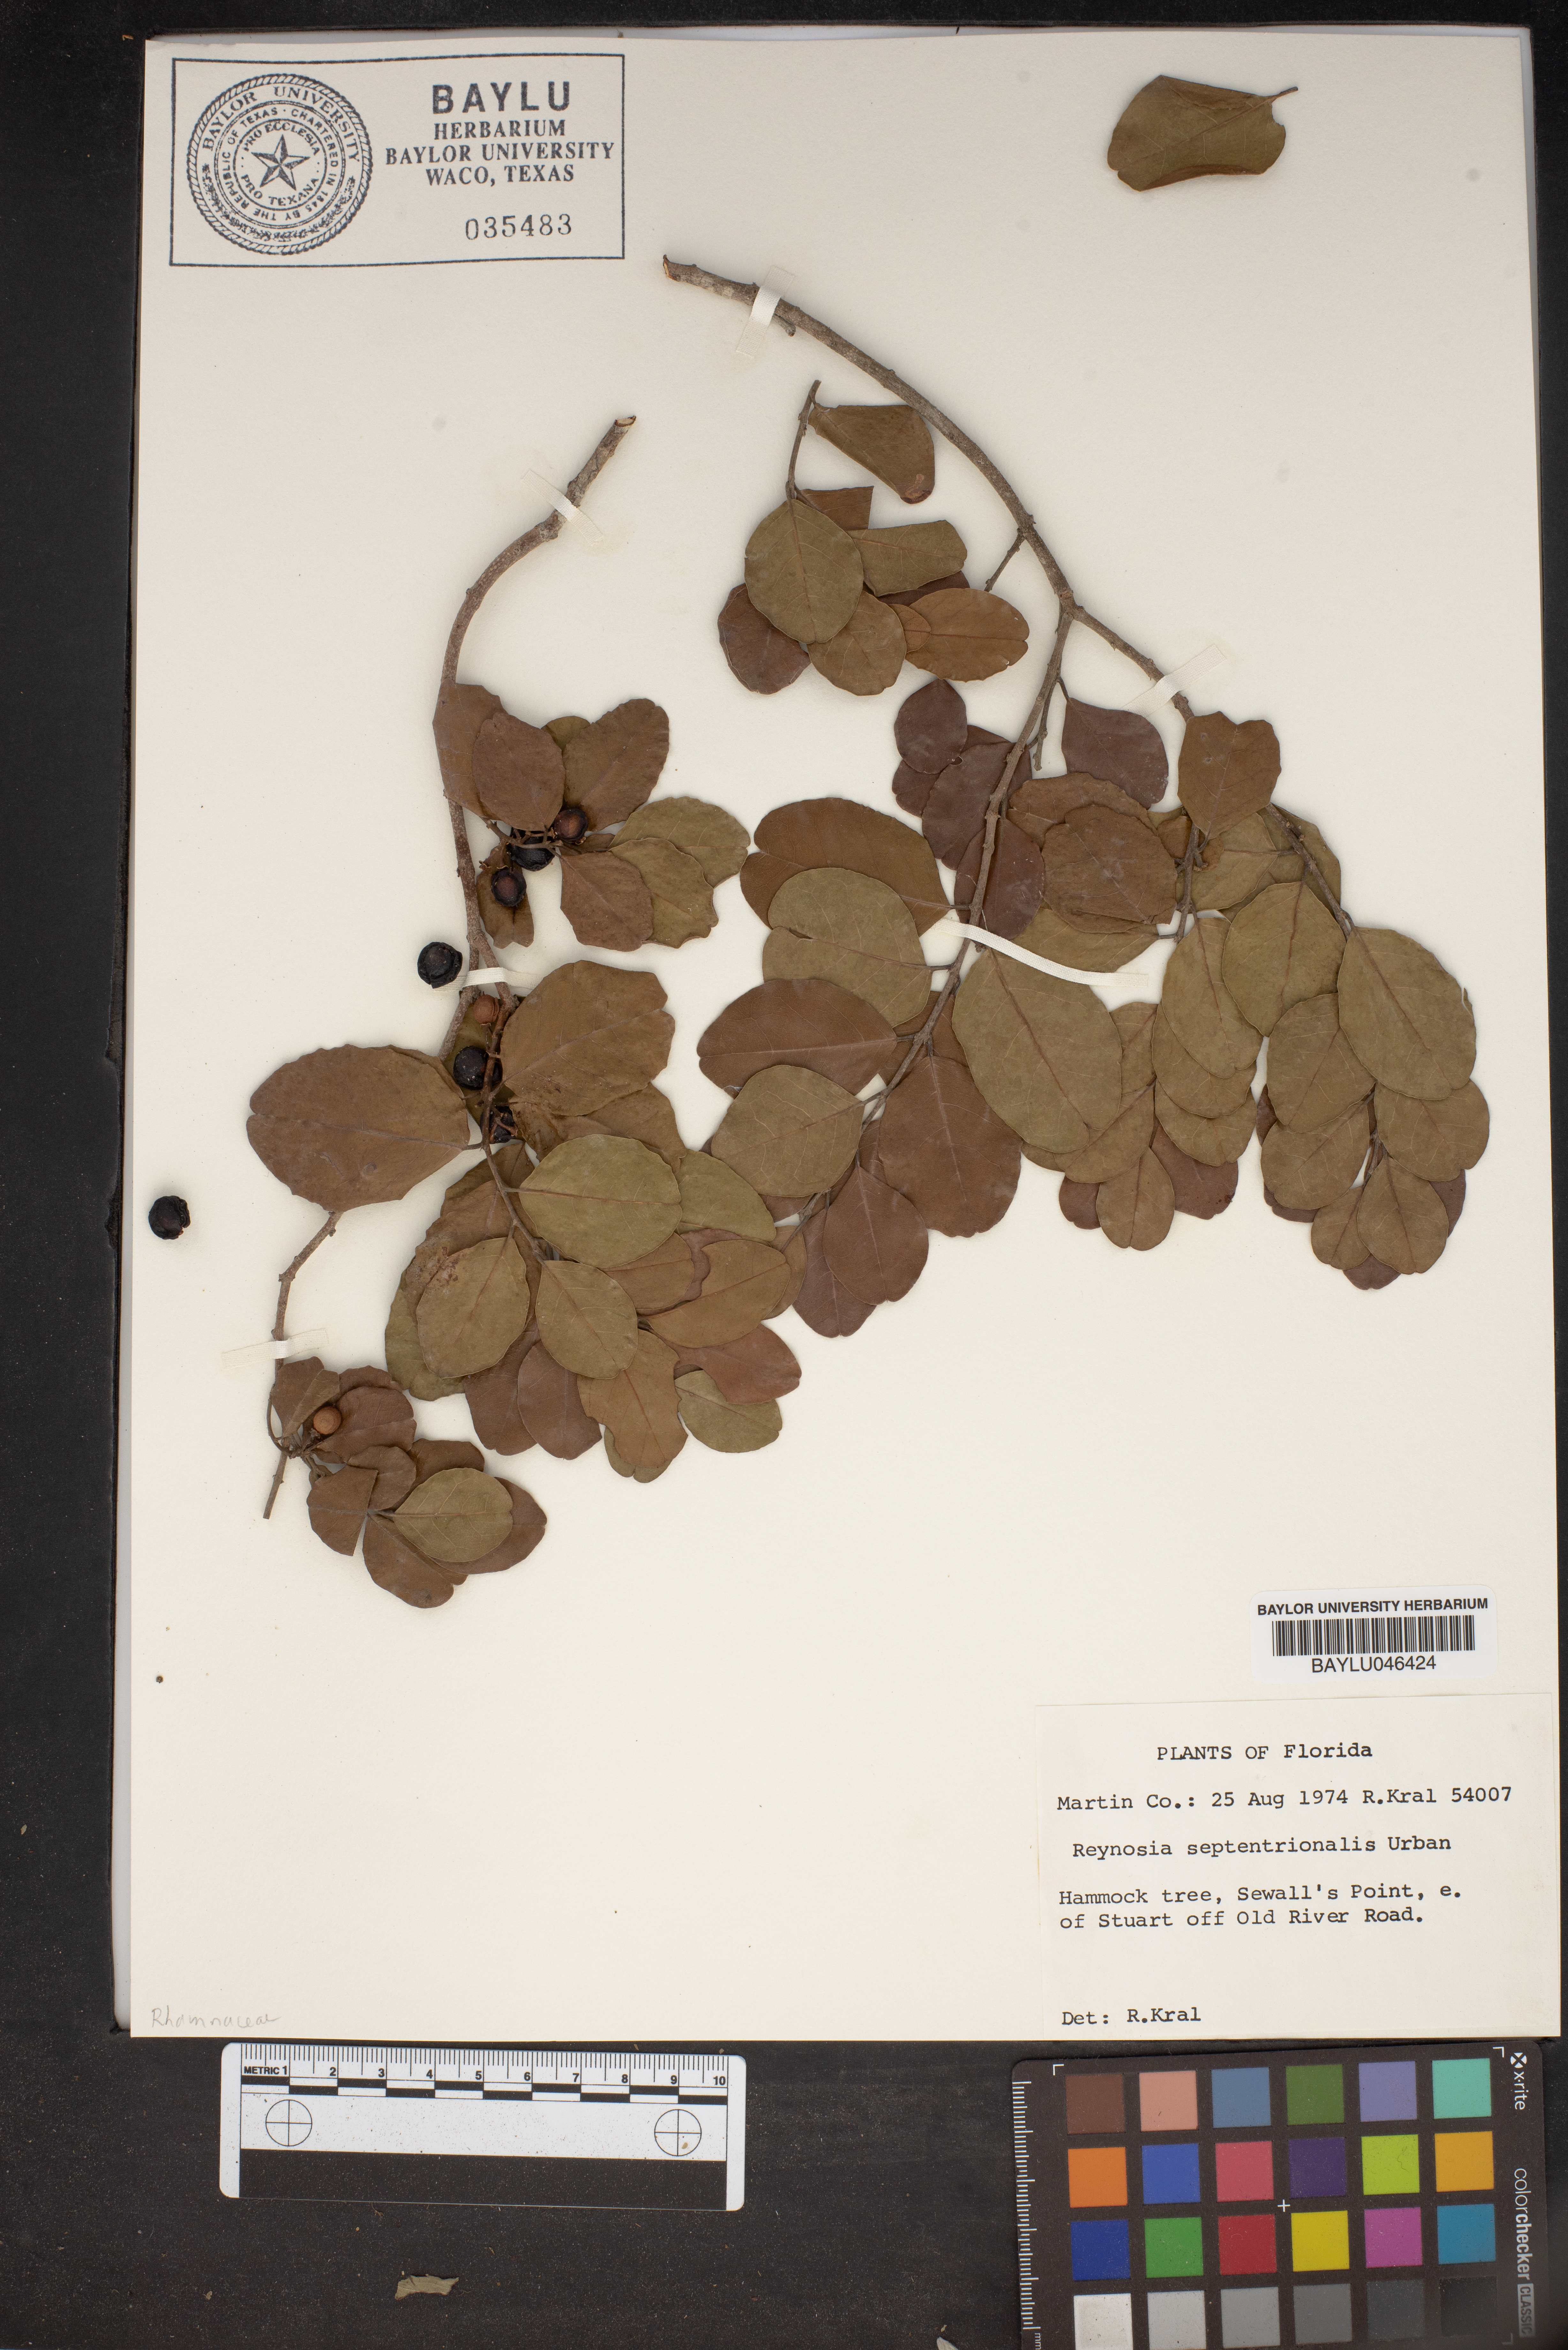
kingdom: Plantae
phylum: Tracheophyta
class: Magnoliopsida
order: Rosales
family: Rhamnaceae
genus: Reynosia
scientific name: Reynosia septentrionalis
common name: Red ironwood
